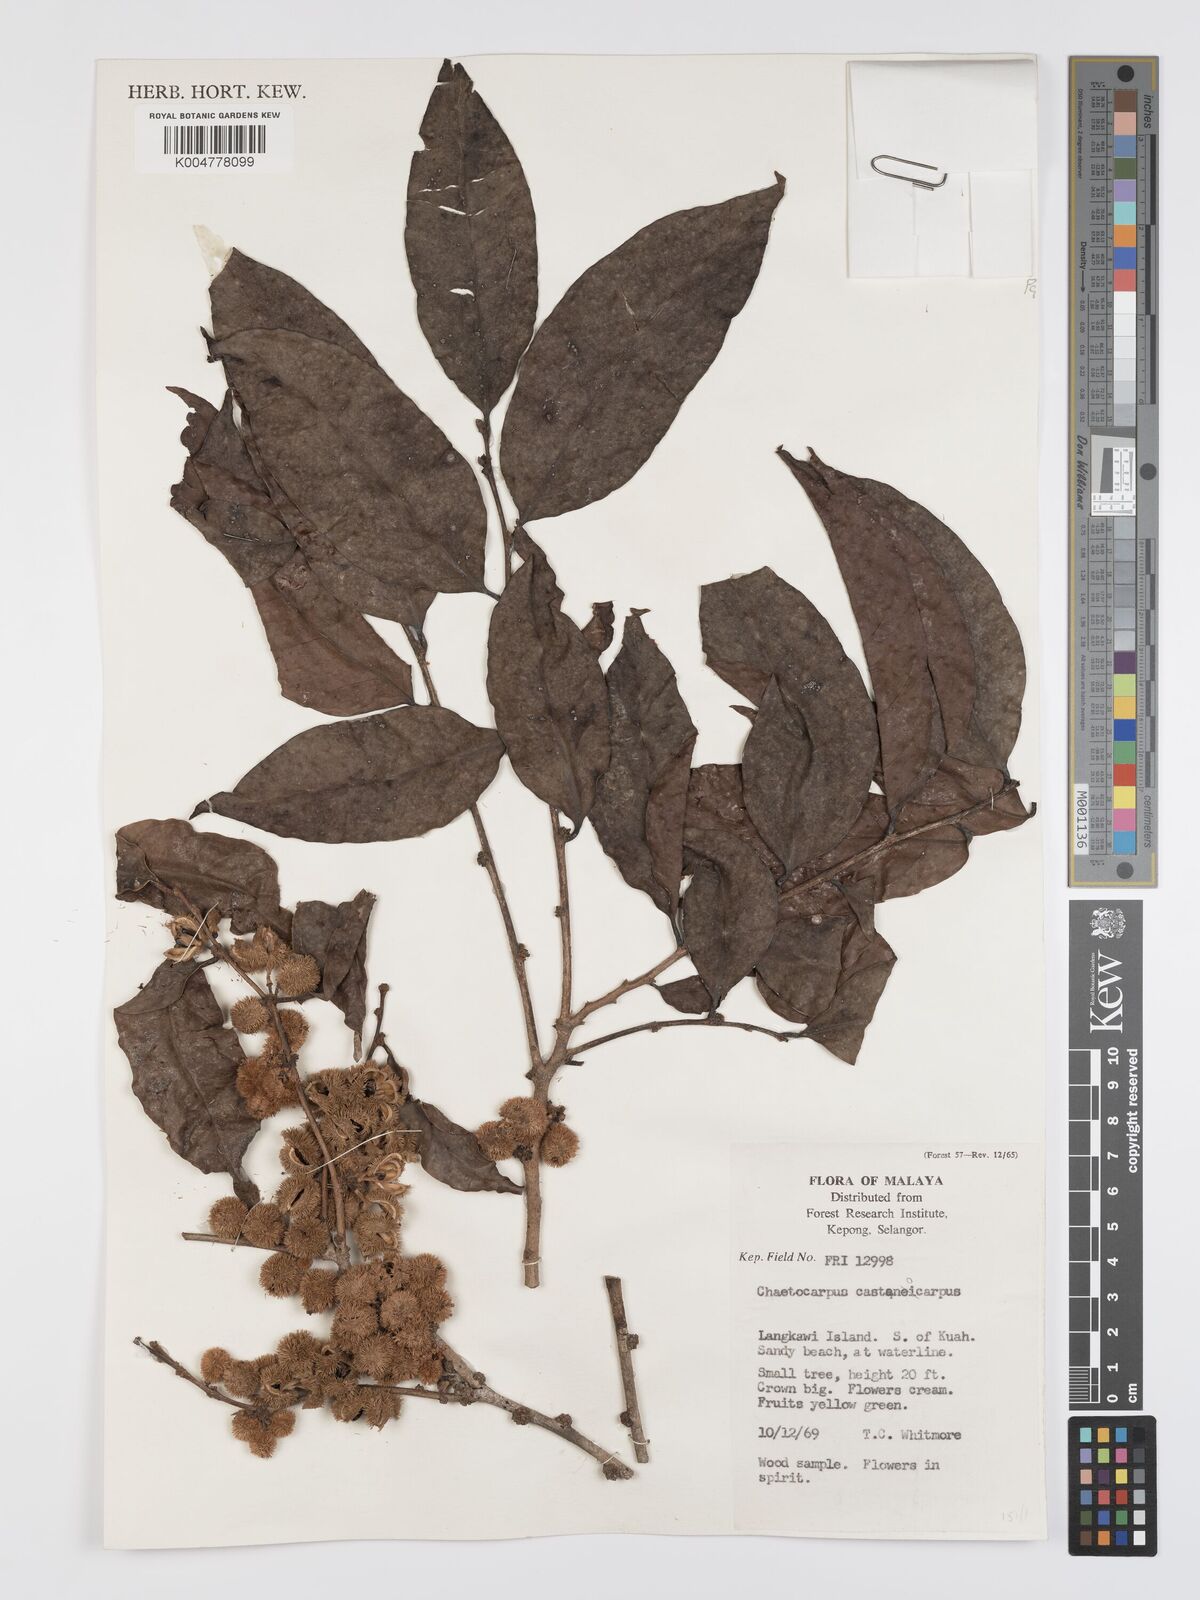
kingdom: Plantae
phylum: Tracheophyta
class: Magnoliopsida
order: Malpighiales
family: Peraceae
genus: Chaetocarpus
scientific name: Chaetocarpus castanocarpus
